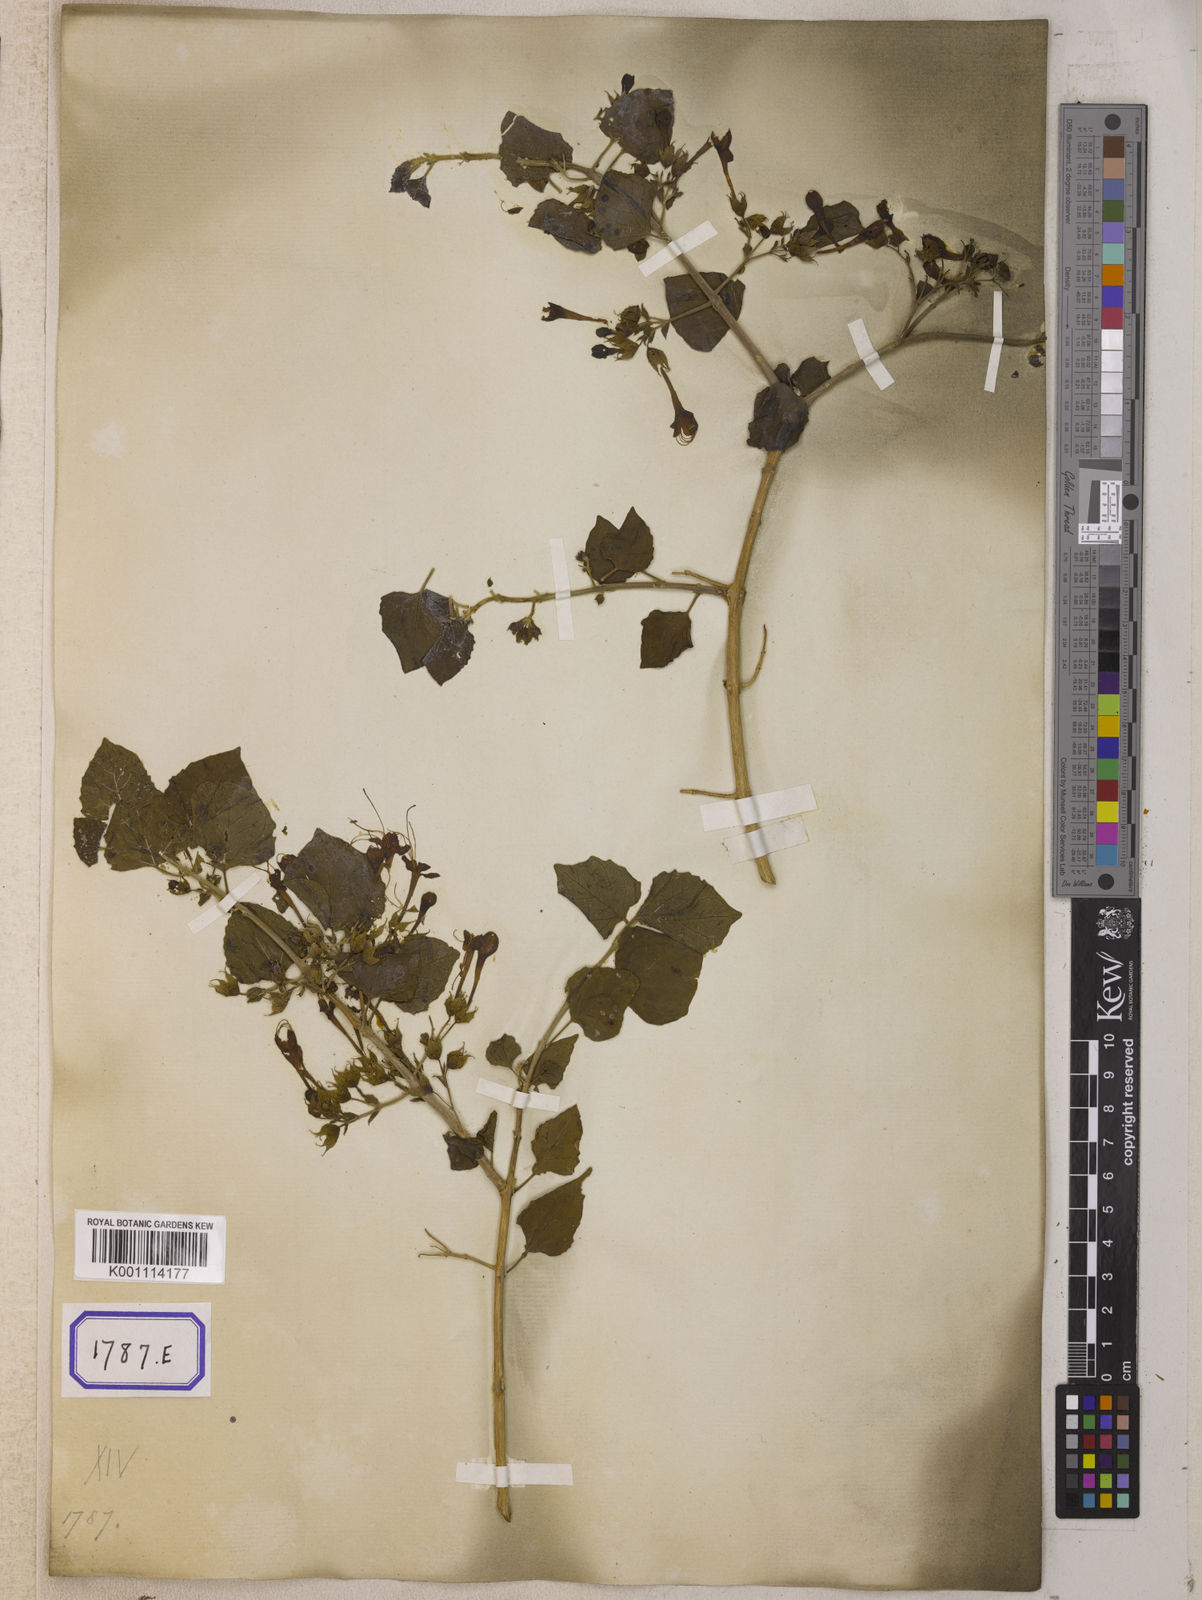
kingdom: Plantae
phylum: Tracheophyta
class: Magnoliopsida
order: Lamiales
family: Lamiaceae
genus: Clerodendrum
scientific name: Clerodendrum
